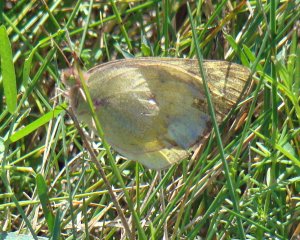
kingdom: Animalia
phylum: Arthropoda
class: Insecta
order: Lepidoptera
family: Pieridae
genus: Colias
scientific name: Colias philodice
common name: Clouded Sulphur
